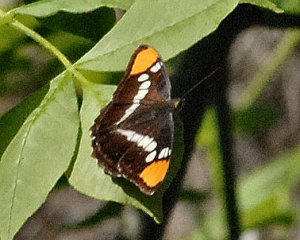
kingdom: Animalia
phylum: Arthropoda
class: Insecta
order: Lepidoptera
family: Nymphalidae
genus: Limenitis
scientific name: Limenitis bredowii
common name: California Sister
